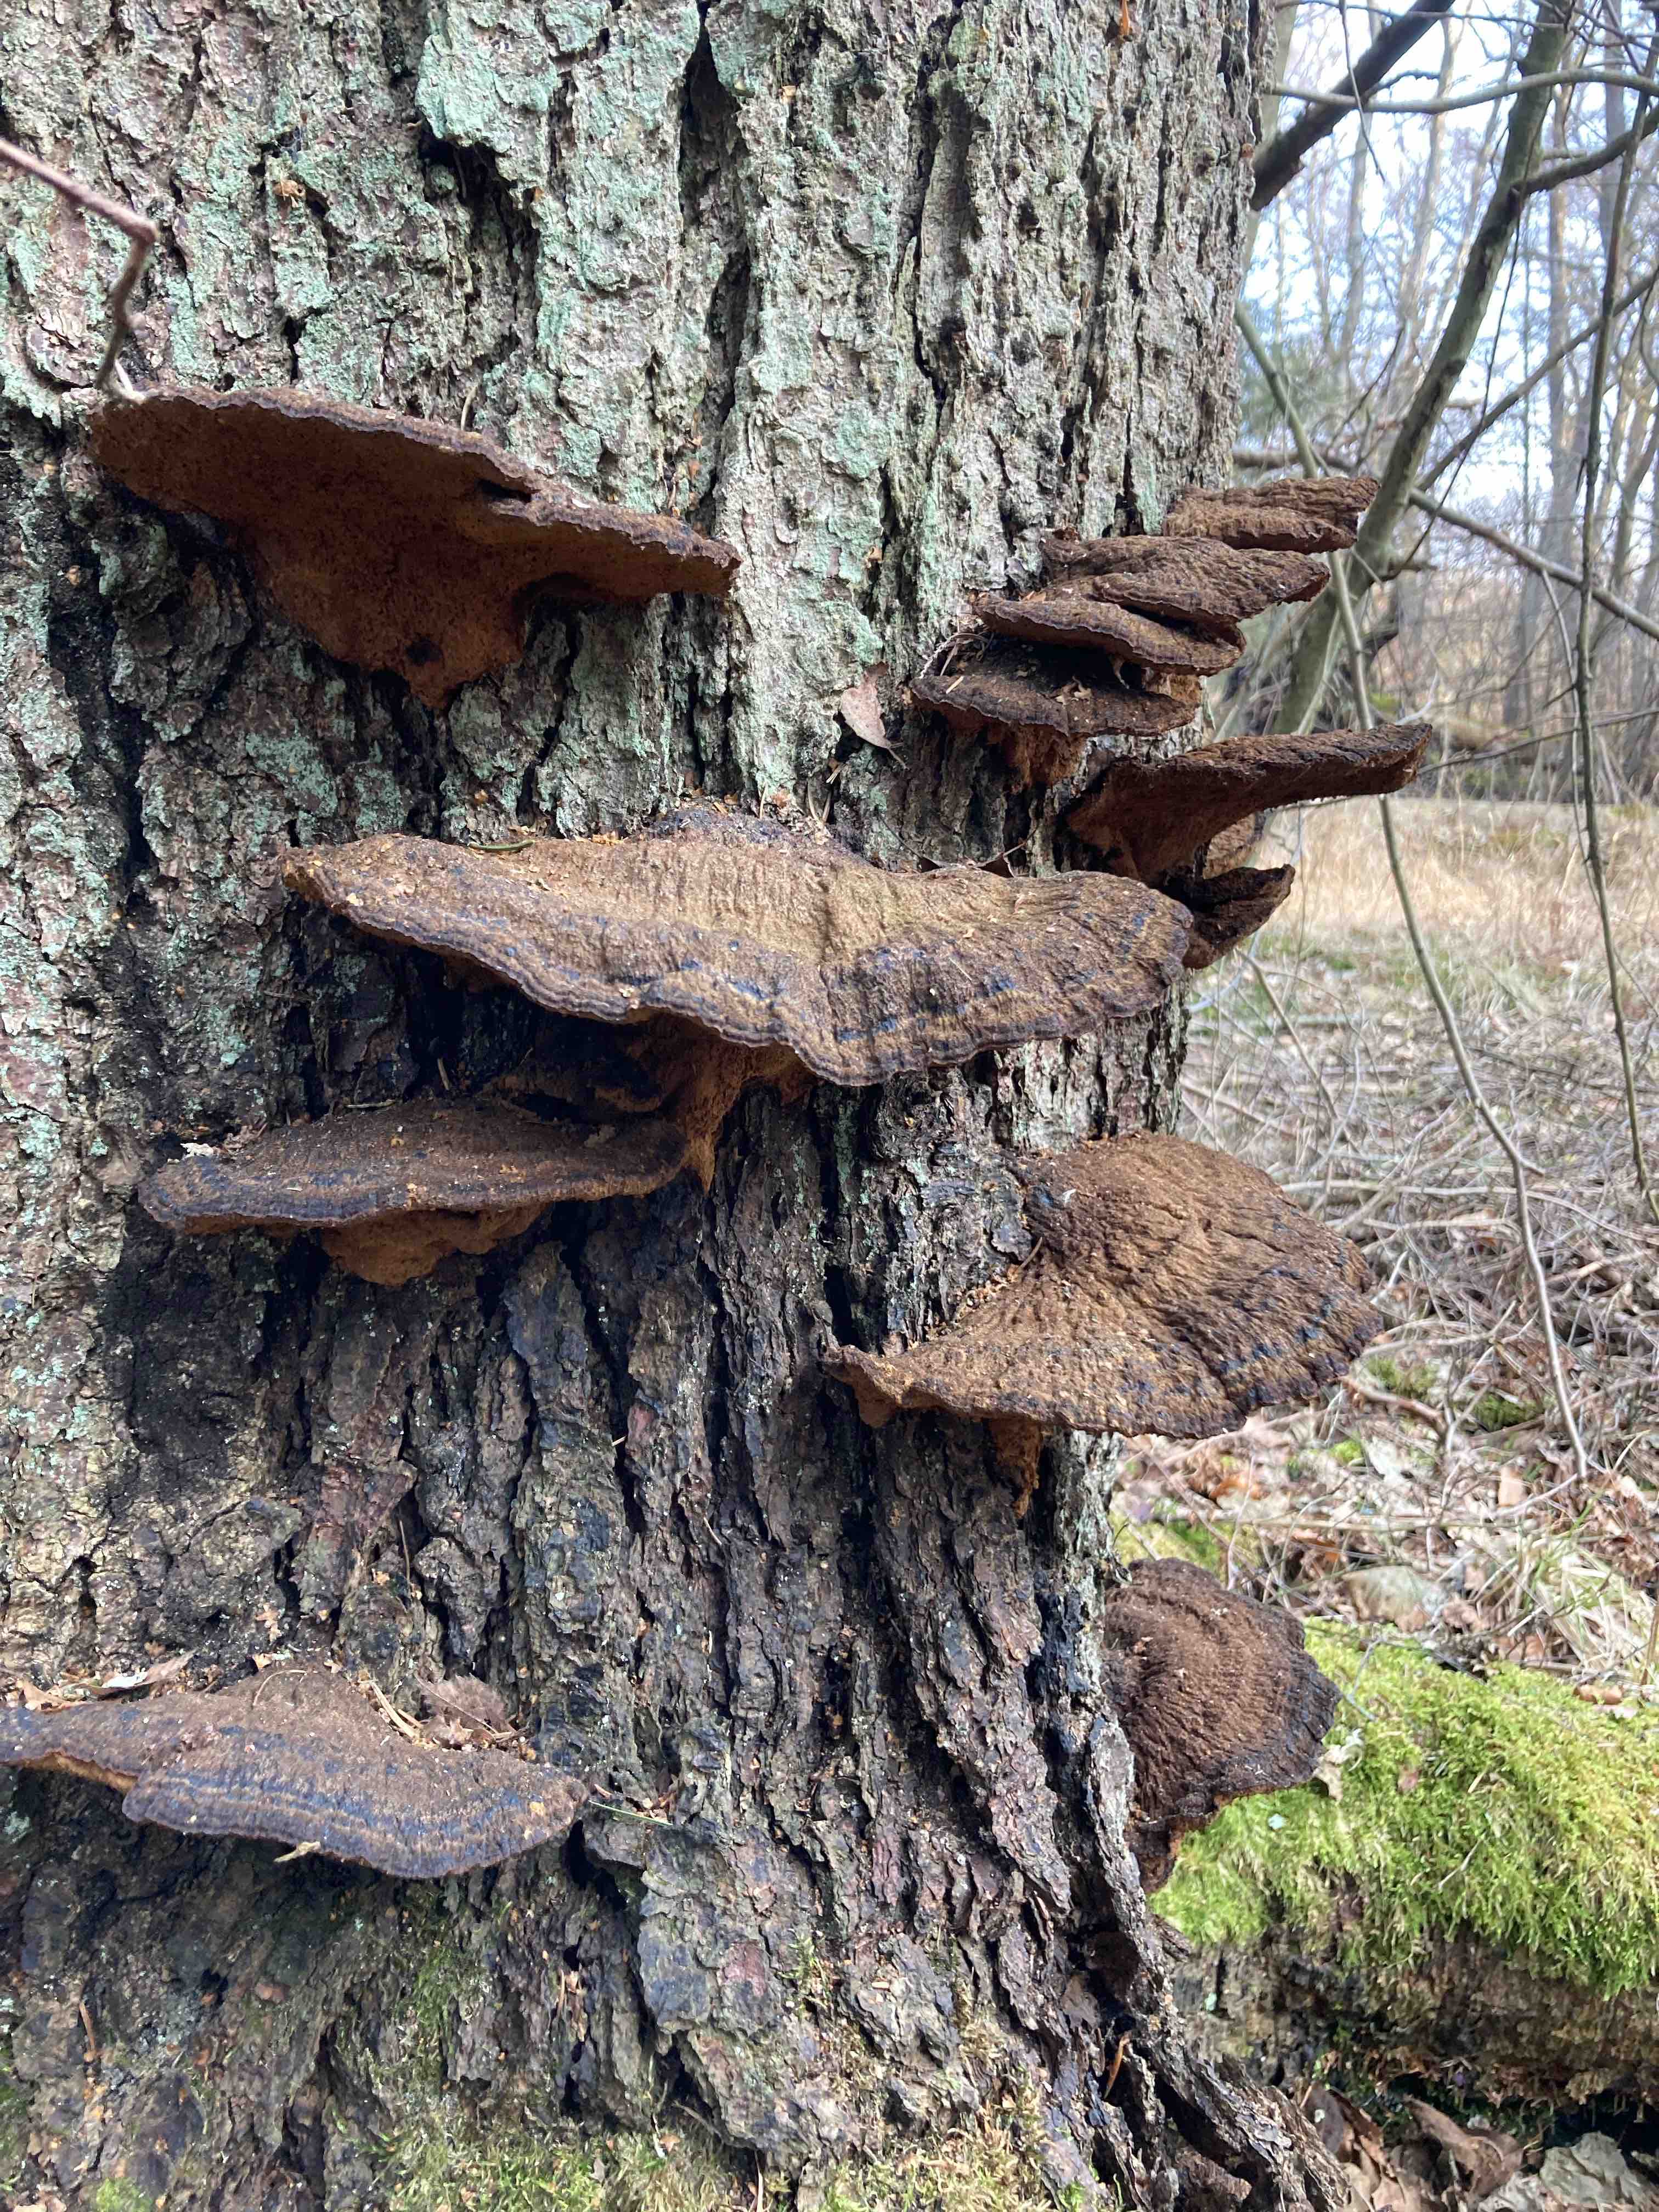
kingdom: Fungi
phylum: Basidiomycota
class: Agaricomycetes
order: Polyporales
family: Ischnodermataceae
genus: Ischnoderma
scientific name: Ischnoderma benzoinum
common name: gran-tjæreporesvamp
